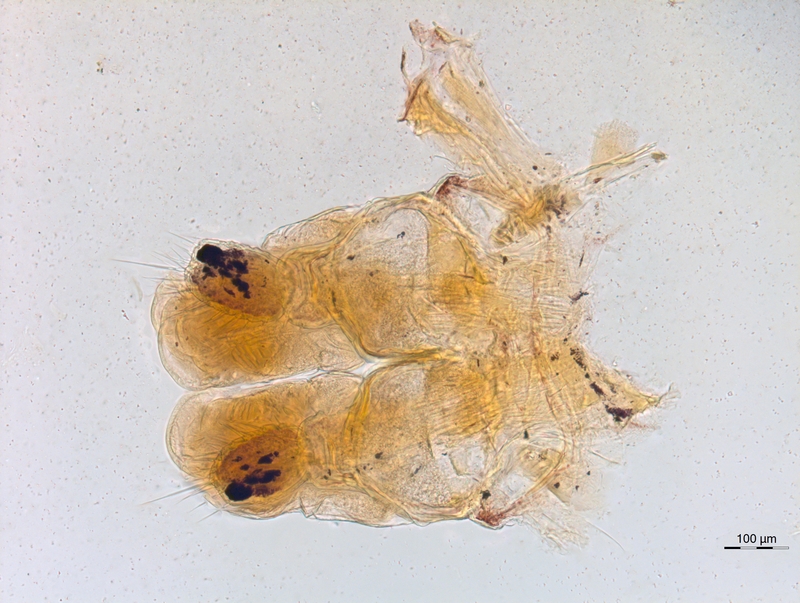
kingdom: Animalia
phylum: Arthropoda
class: Diplopoda
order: Chordeumatida
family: Chordeumatidae
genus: Mycogona
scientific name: Mycogona germanica
